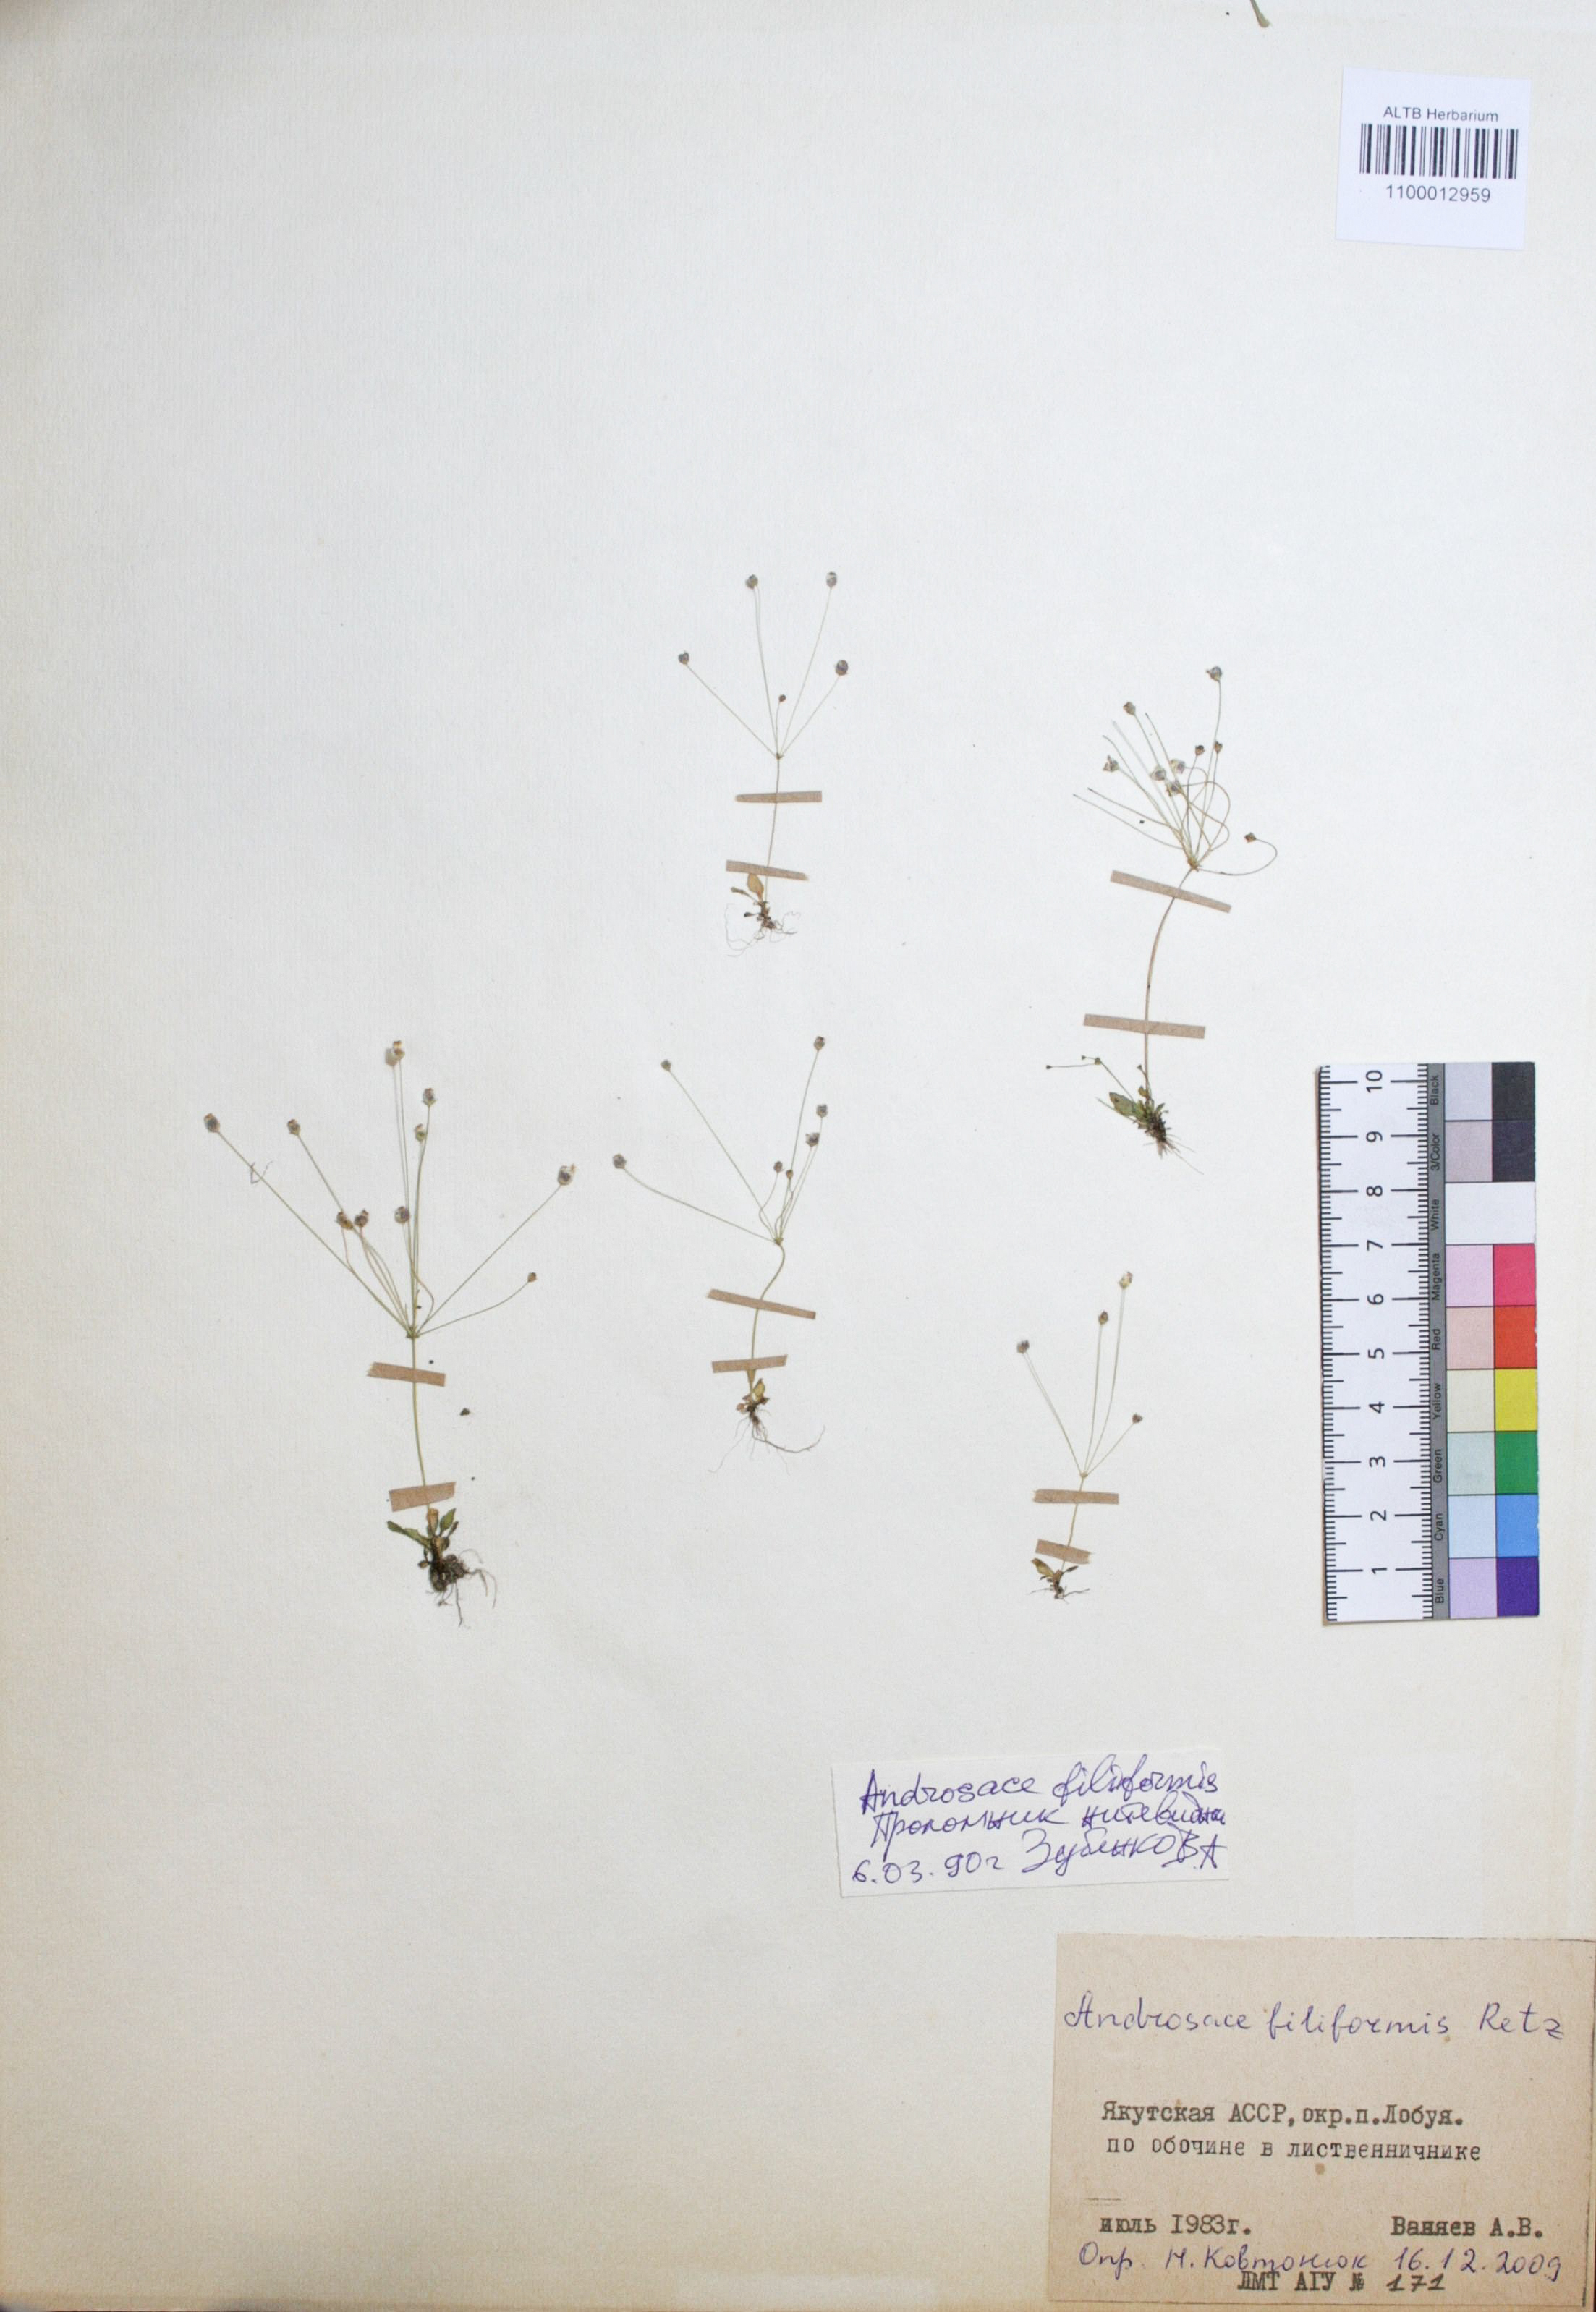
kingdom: Plantae
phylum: Tracheophyta
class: Magnoliopsida
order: Ericales
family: Primulaceae
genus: Androsace
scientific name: Androsace filiformis
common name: Filiform rock jasmine
